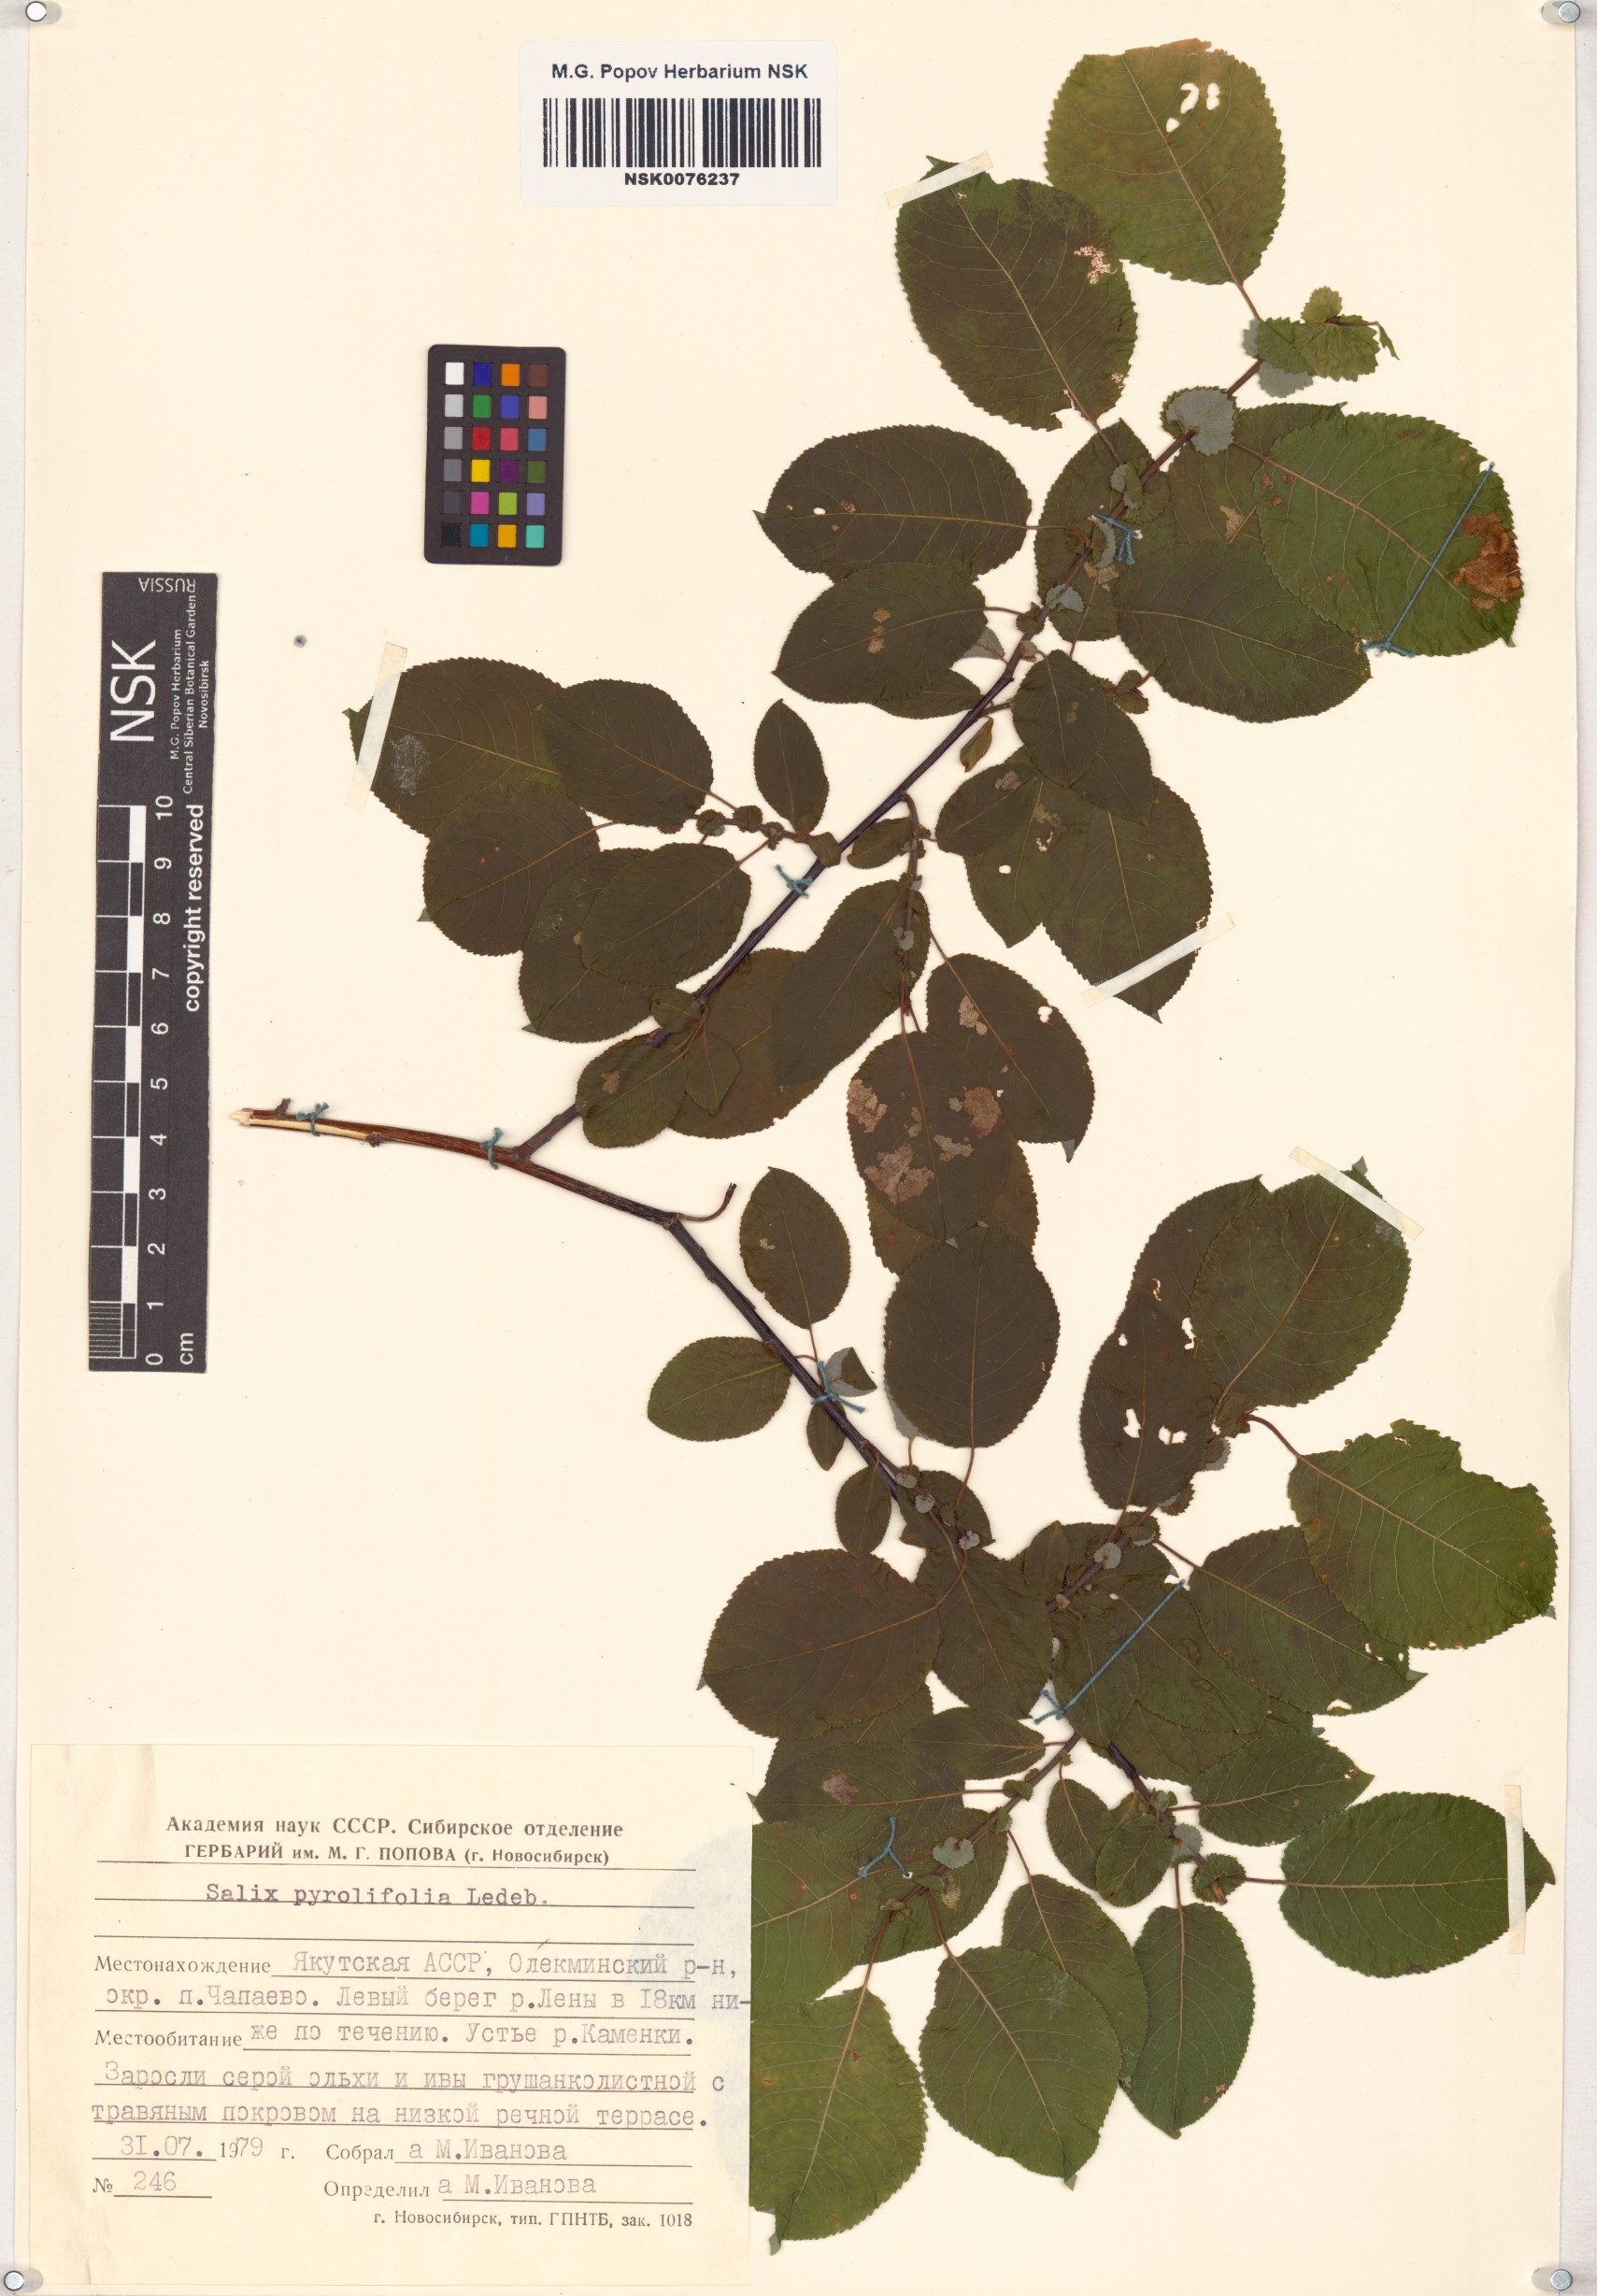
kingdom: Plantae
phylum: Tracheophyta
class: Magnoliopsida
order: Malpighiales
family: Salicaceae
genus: Salix
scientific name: Salix pyrolifolia
